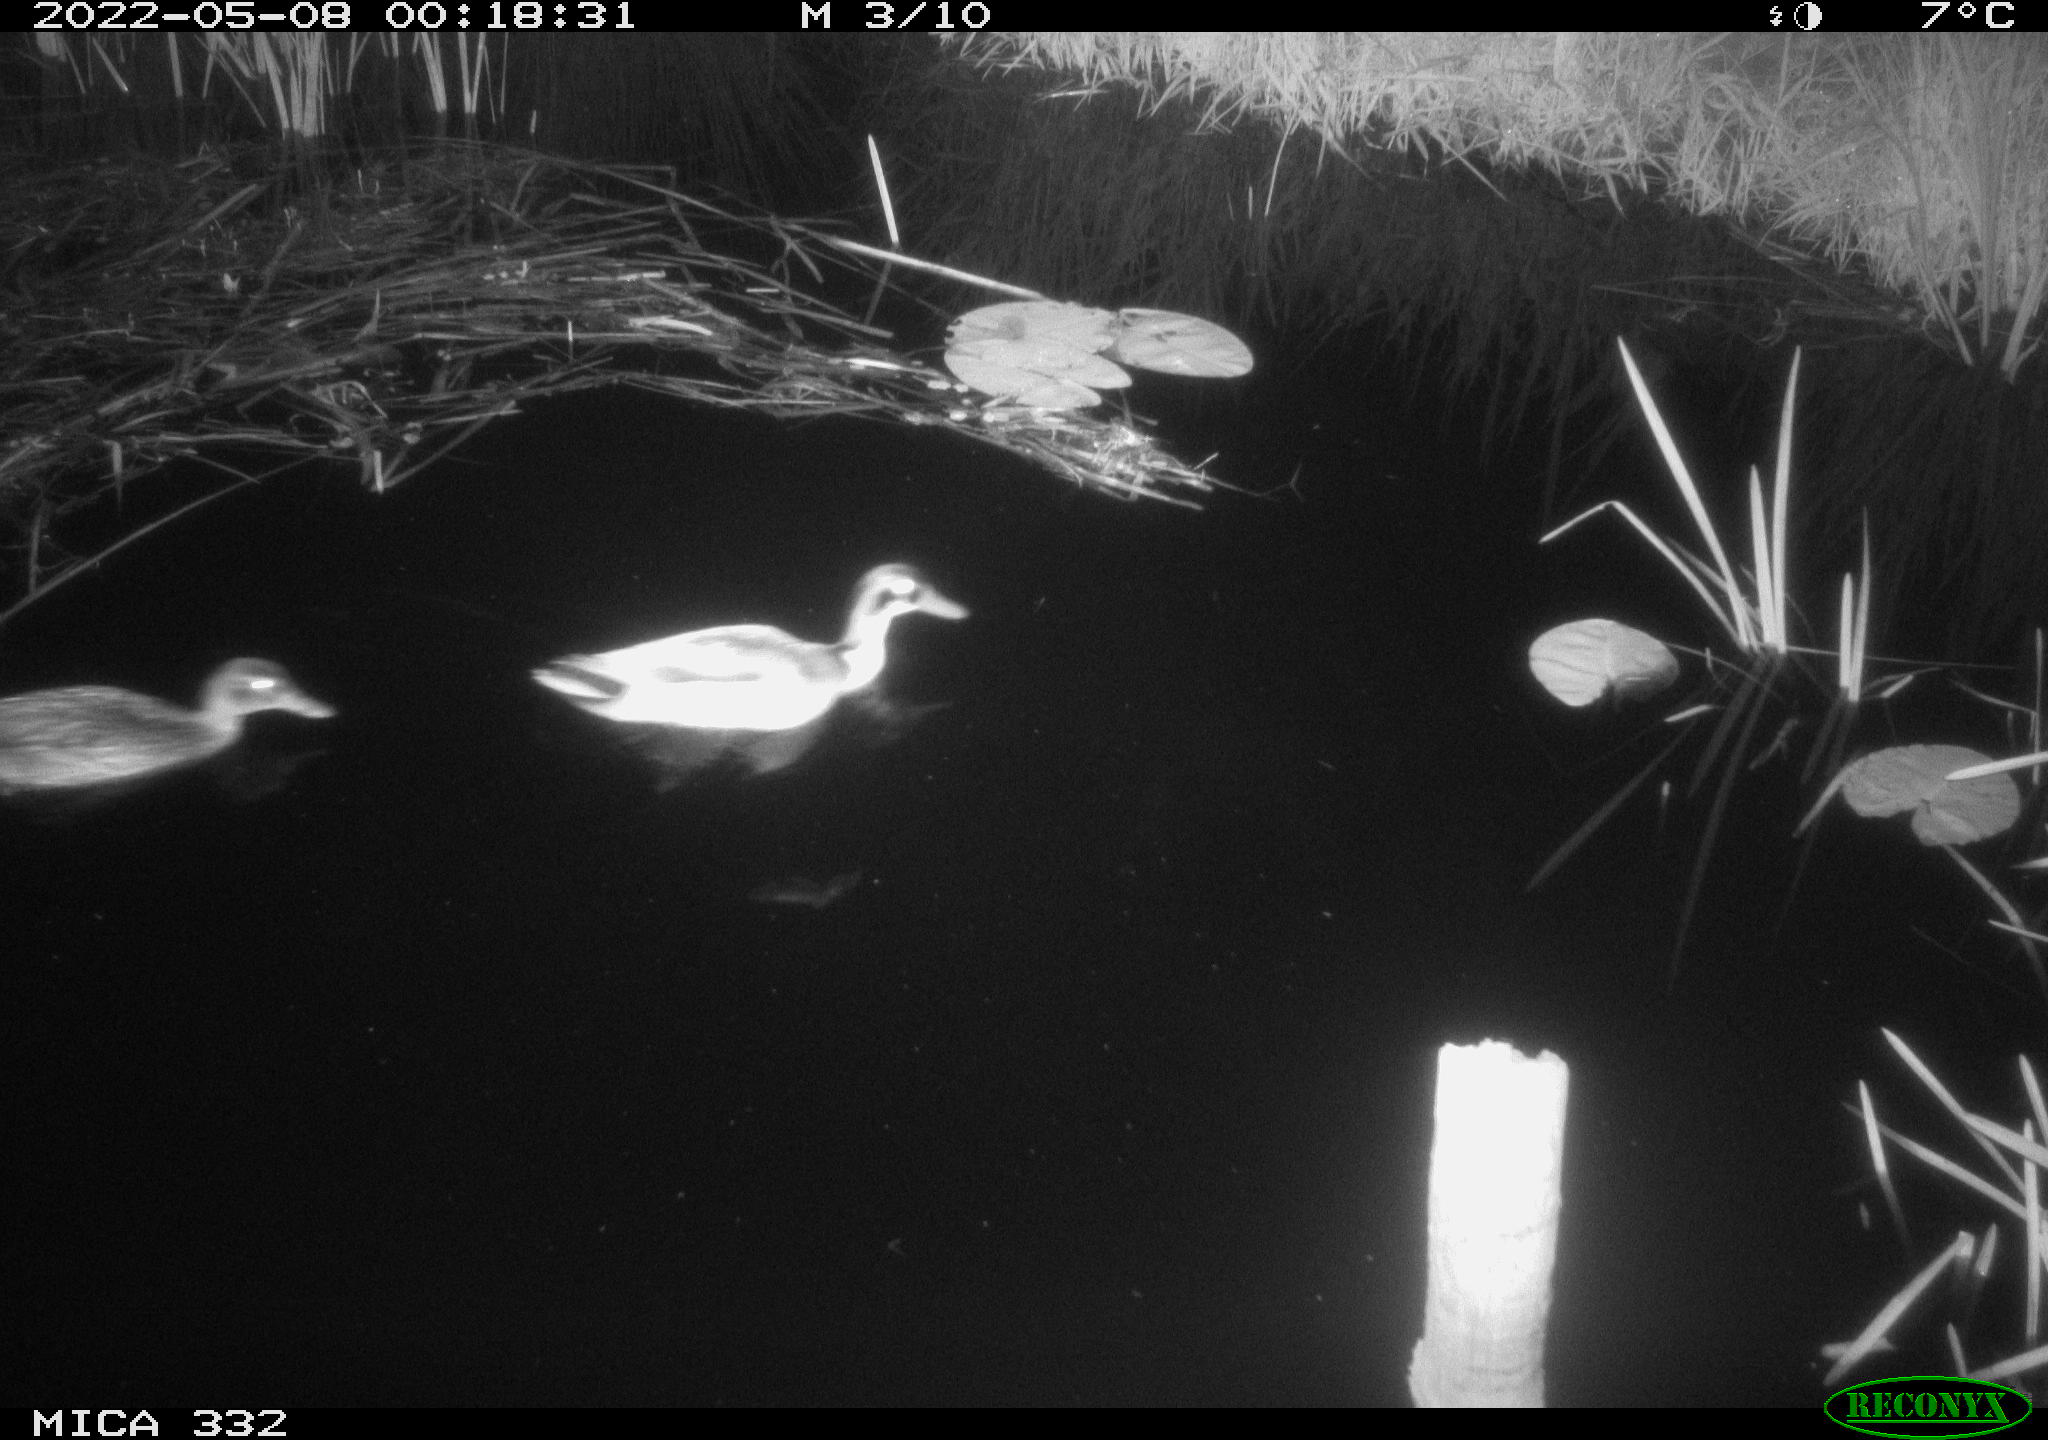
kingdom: Animalia
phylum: Chordata
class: Aves
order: Anseriformes
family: Anatidae
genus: Anas
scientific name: Anas platyrhynchos
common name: Mallard
